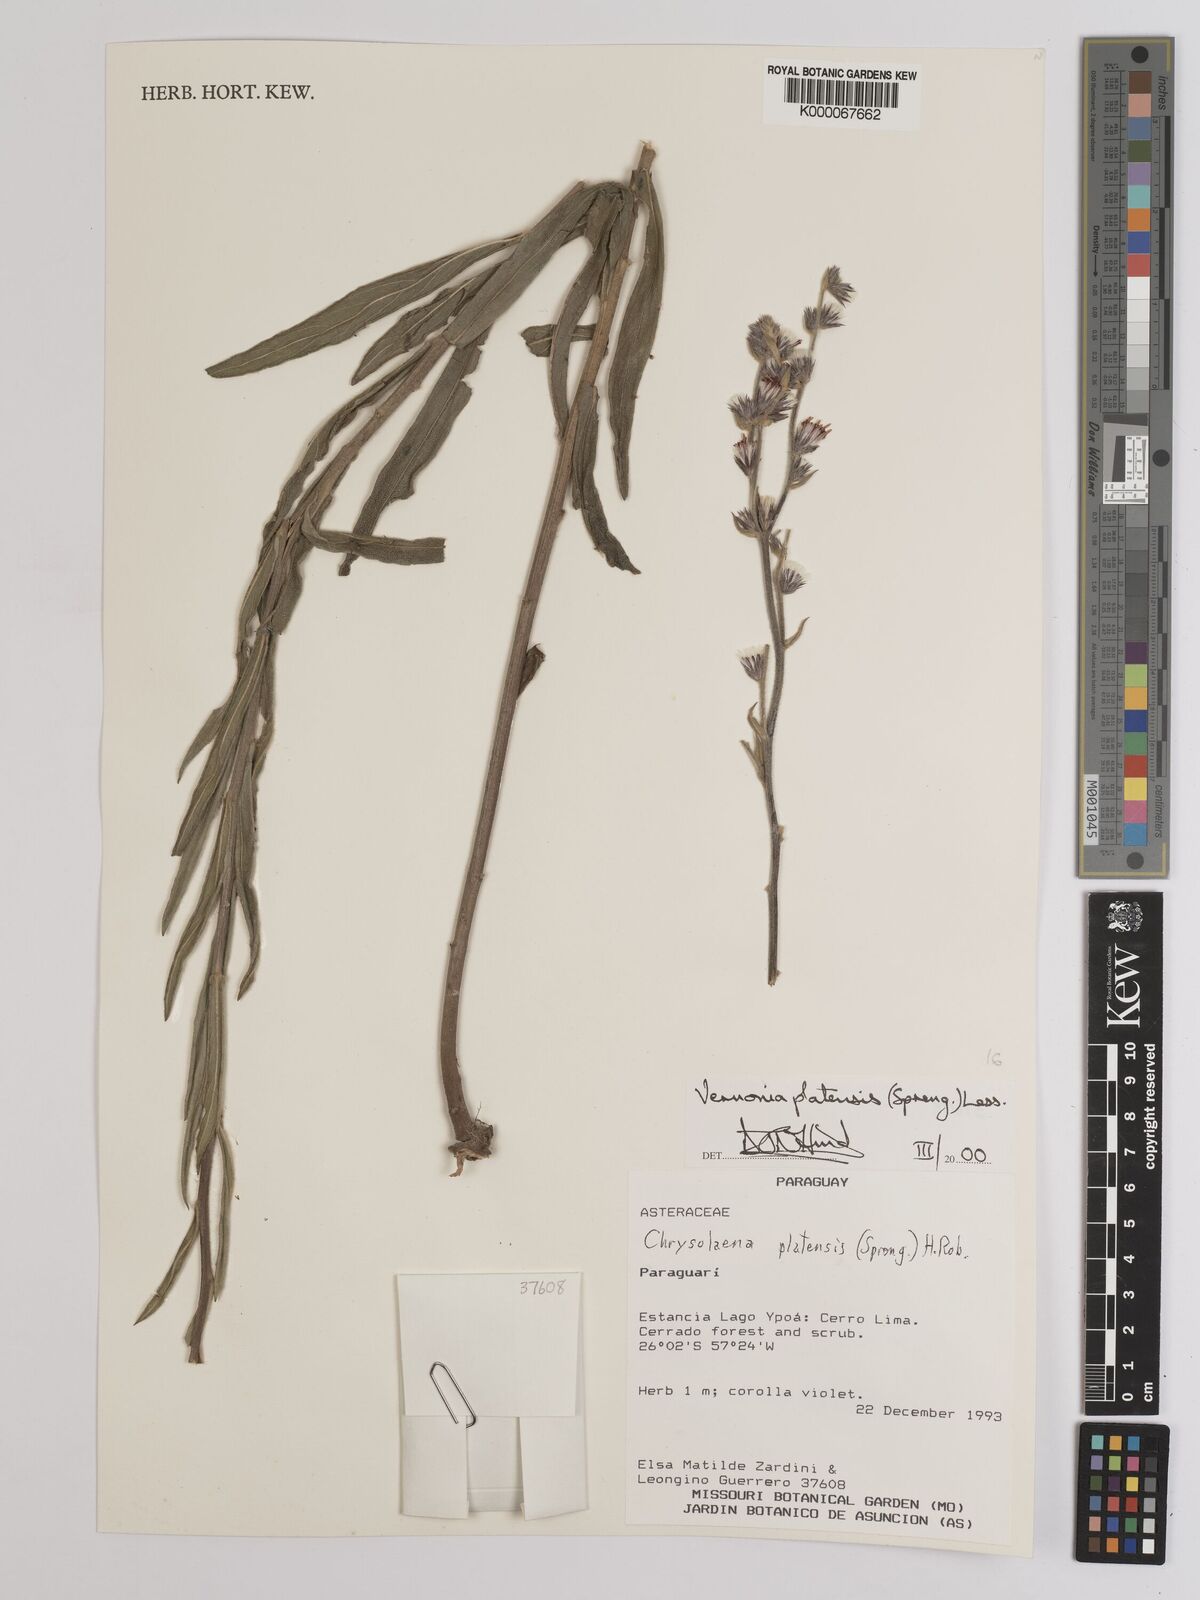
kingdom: Plantae
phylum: Tracheophyta
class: Magnoliopsida
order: Asterales
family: Asteraceae
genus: Chrysolaena
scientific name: Chrysolaena platensis
